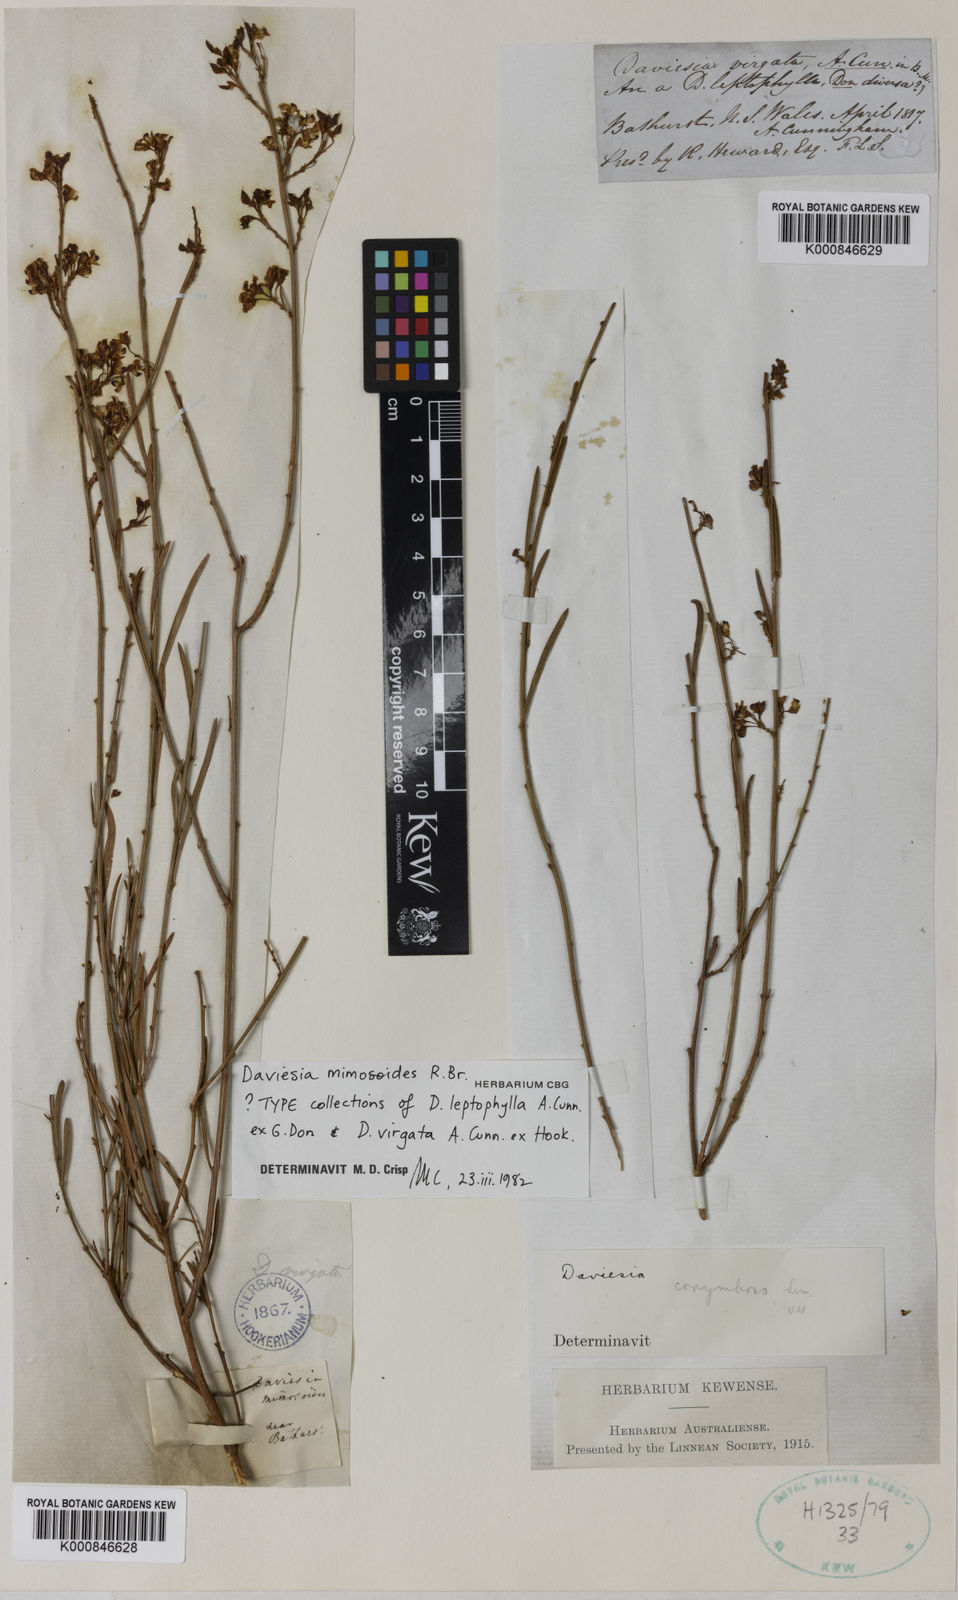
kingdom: Plantae
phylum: Tracheophyta
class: Magnoliopsida
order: Fabales
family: Fabaceae
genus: Daviesia
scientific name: Daviesia mimosoides
